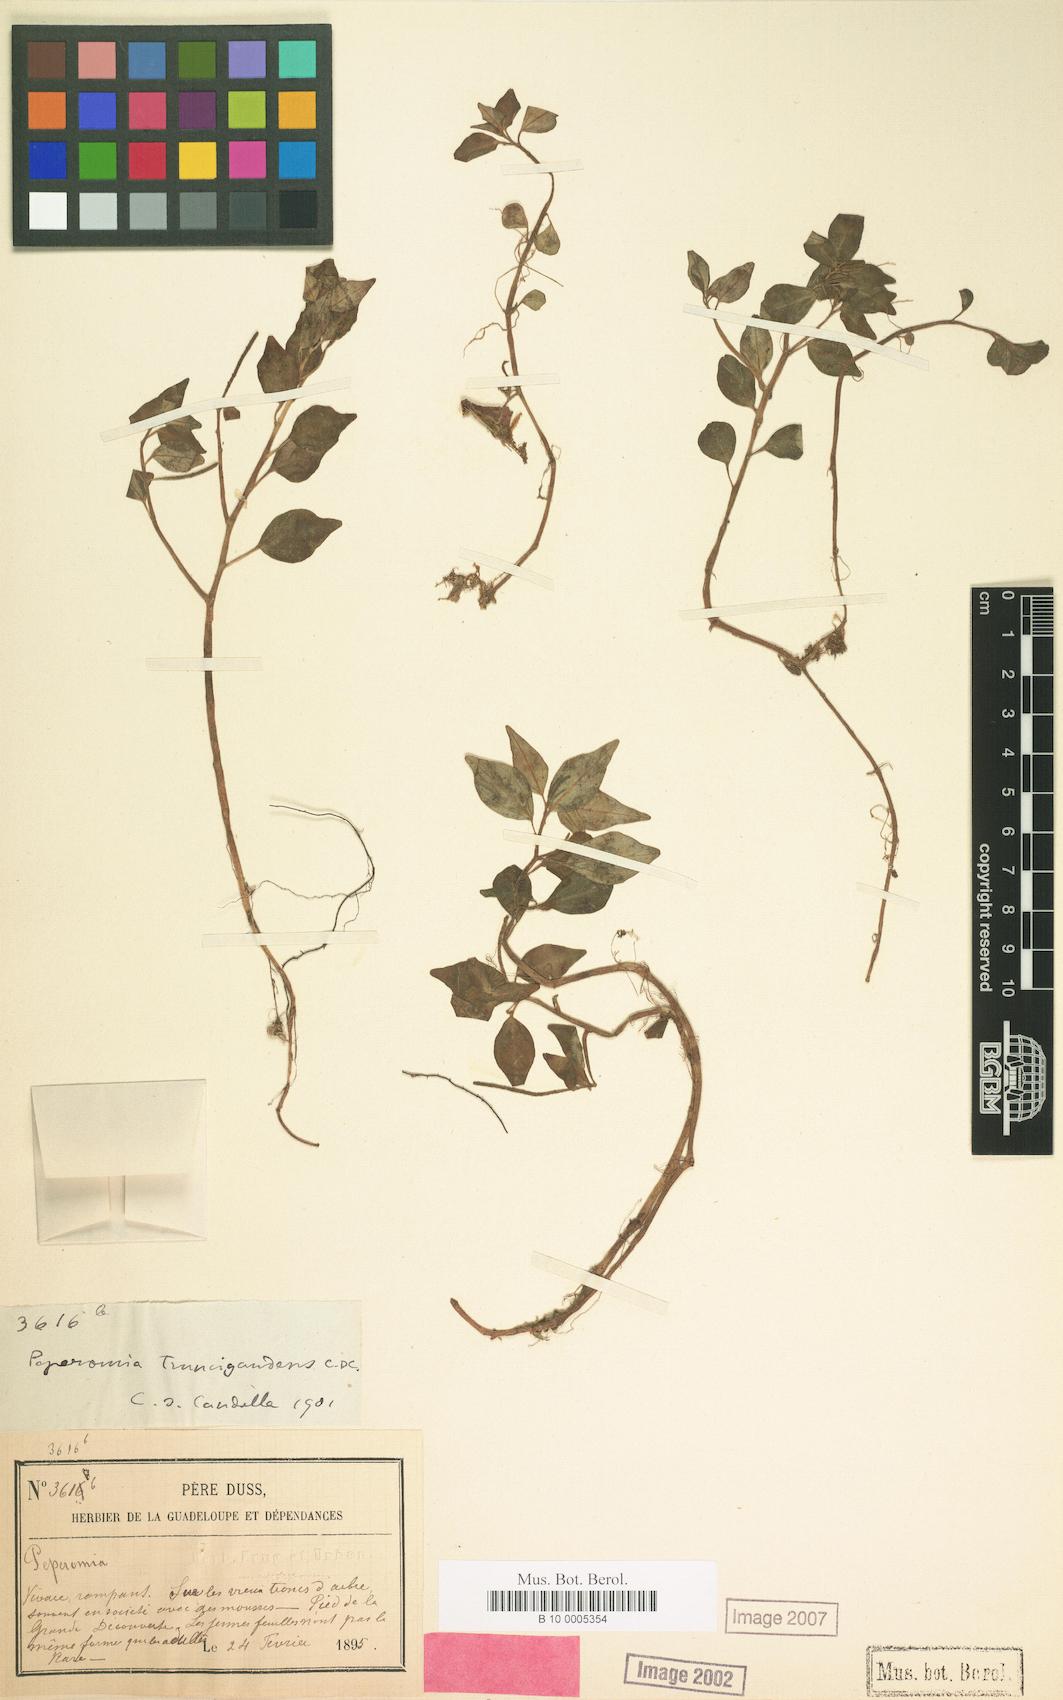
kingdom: Plantae
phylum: Tracheophyta
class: Magnoliopsida
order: Piperales
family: Piperaceae
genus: Peperomia
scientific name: Peperomia truncigaudens
